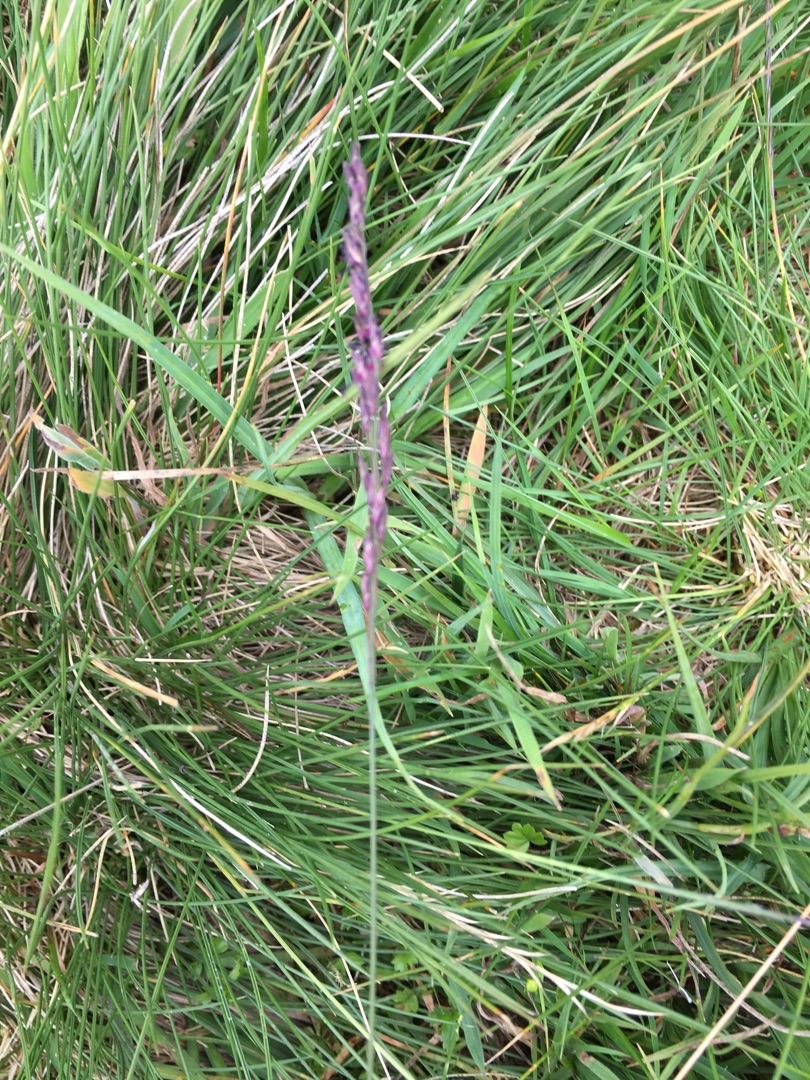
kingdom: Plantae
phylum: Tracheophyta
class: Liliopsida
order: Poales
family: Poaceae
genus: Molinia
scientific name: Molinia caerulea
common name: Blåtop
